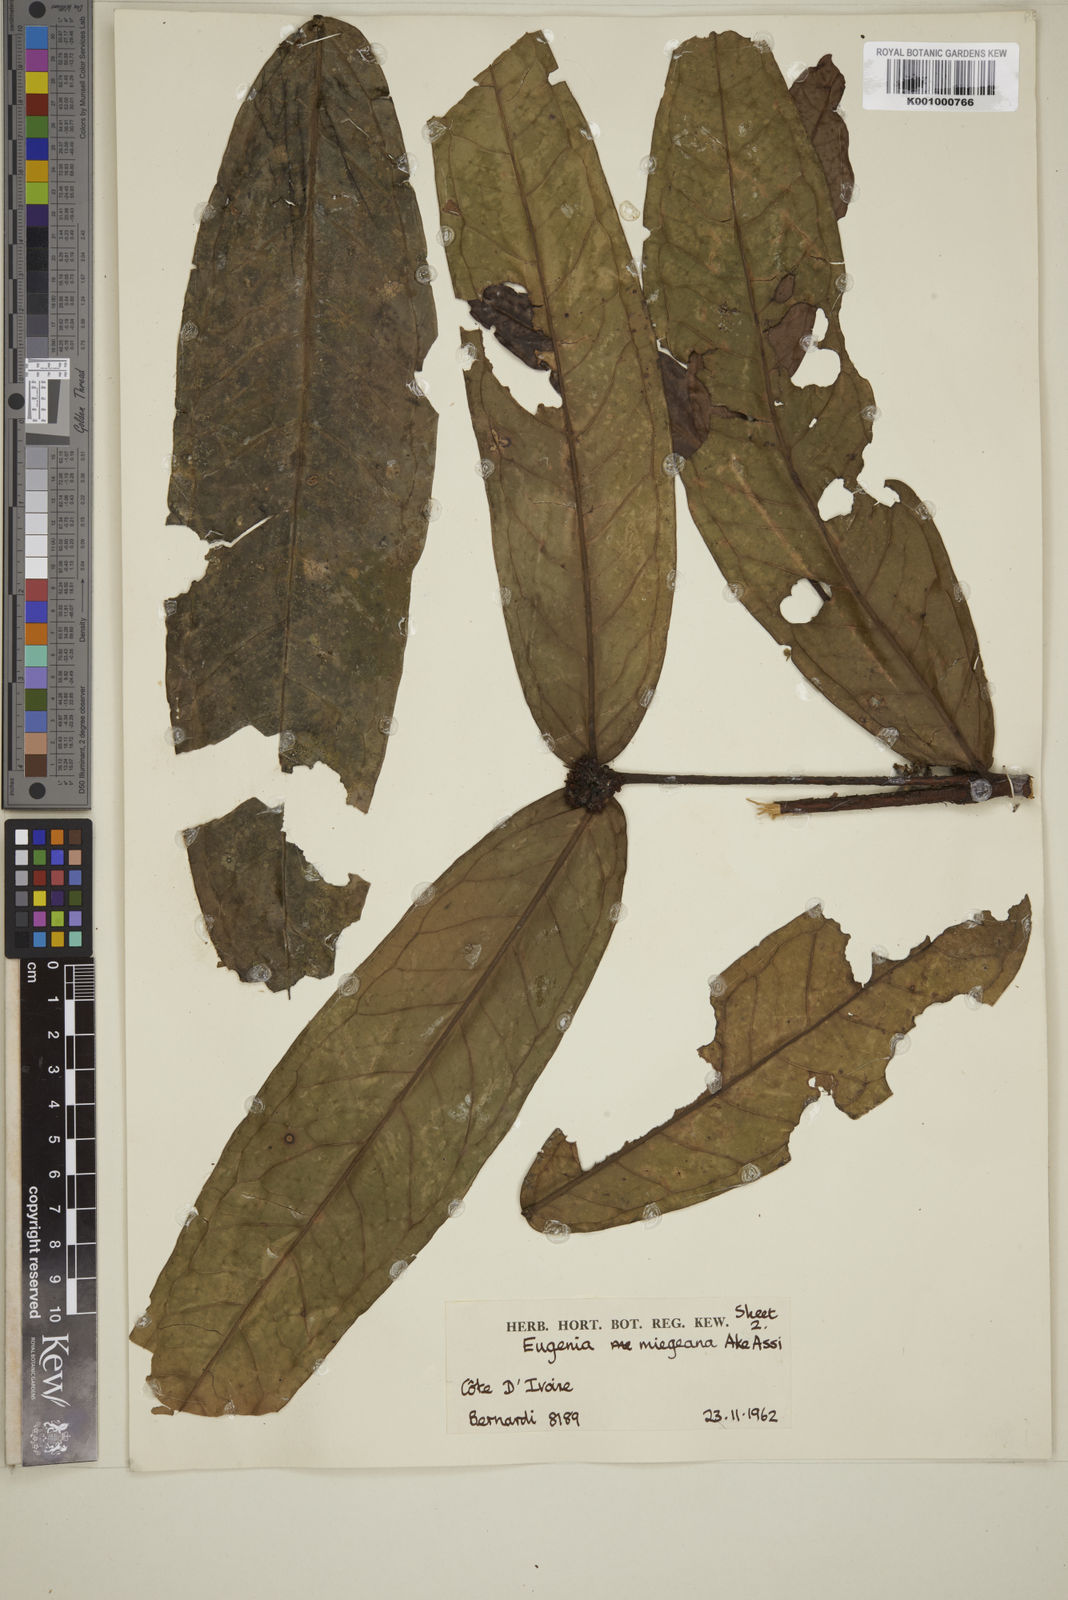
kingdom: Plantae
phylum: Tracheophyta
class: Magnoliopsida
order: Myrtales
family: Myrtaceae
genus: Eugenia
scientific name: Eugenia
